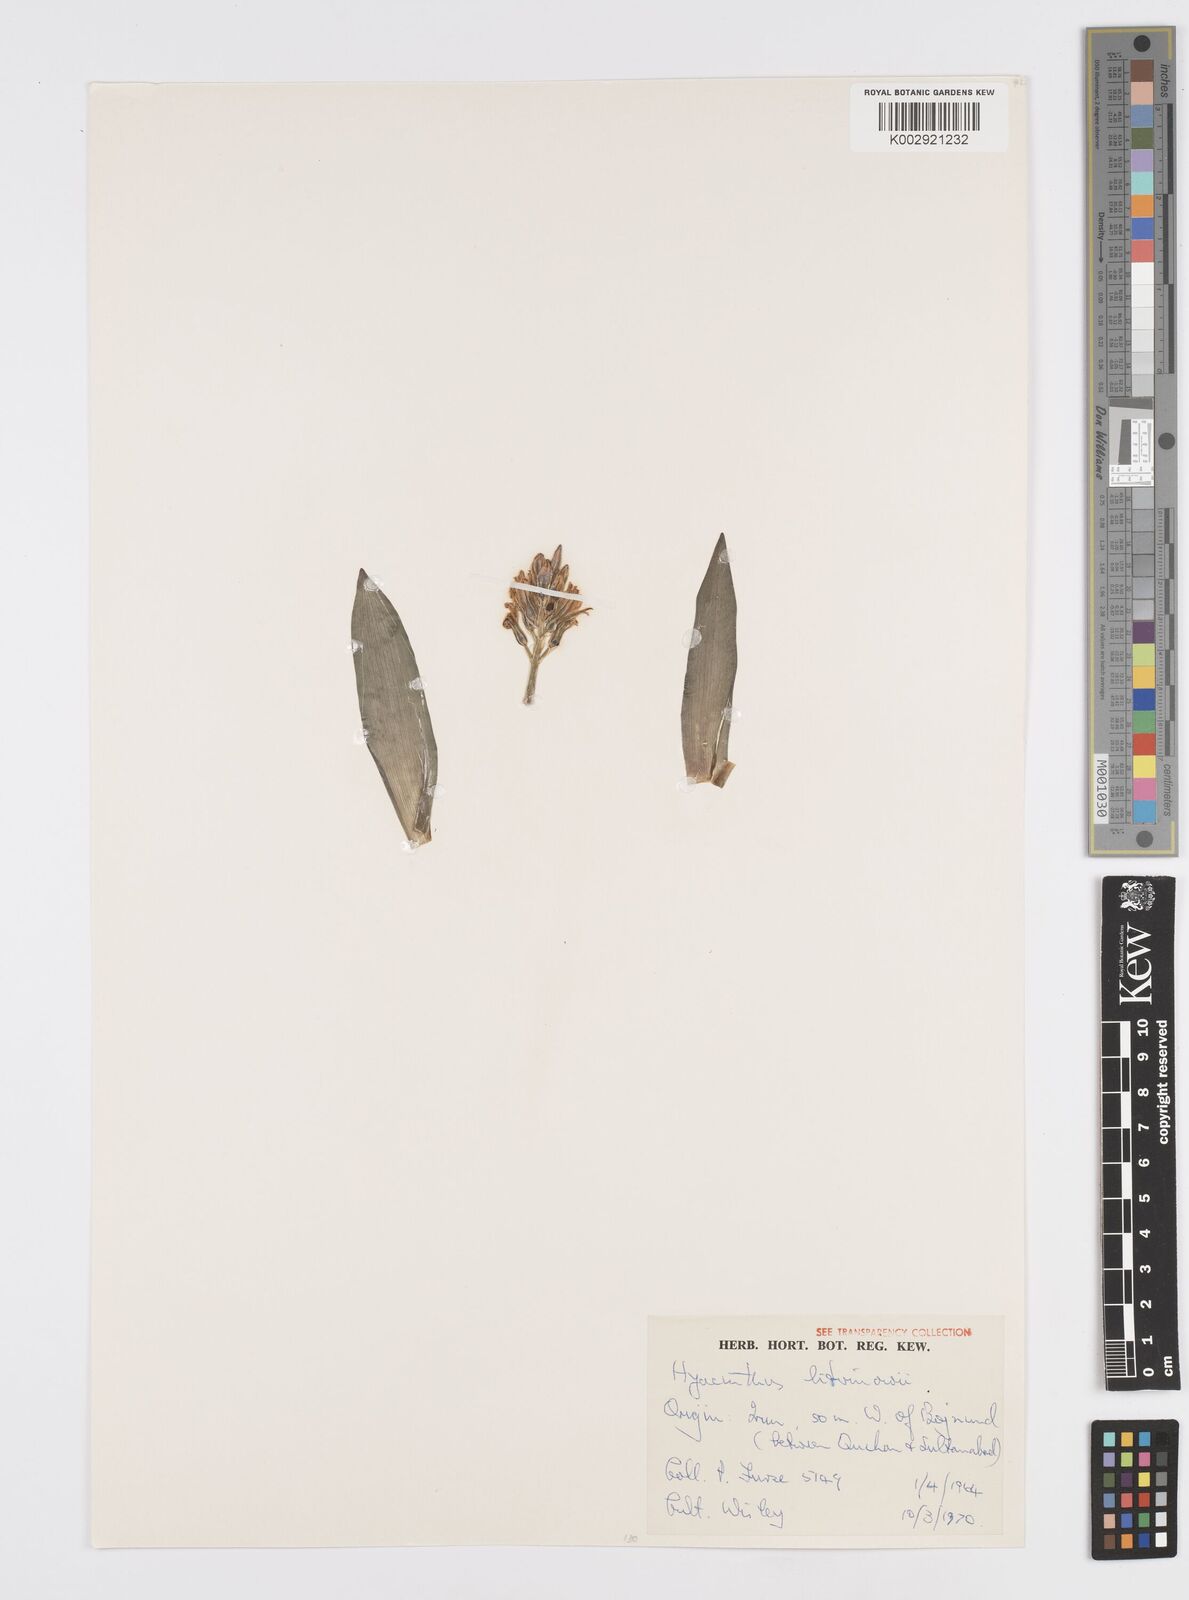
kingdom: Plantae
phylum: Tracheophyta
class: Liliopsida
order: Asparagales
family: Asparagaceae
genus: Hyacinthus
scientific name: Hyacinthus litwinowii
